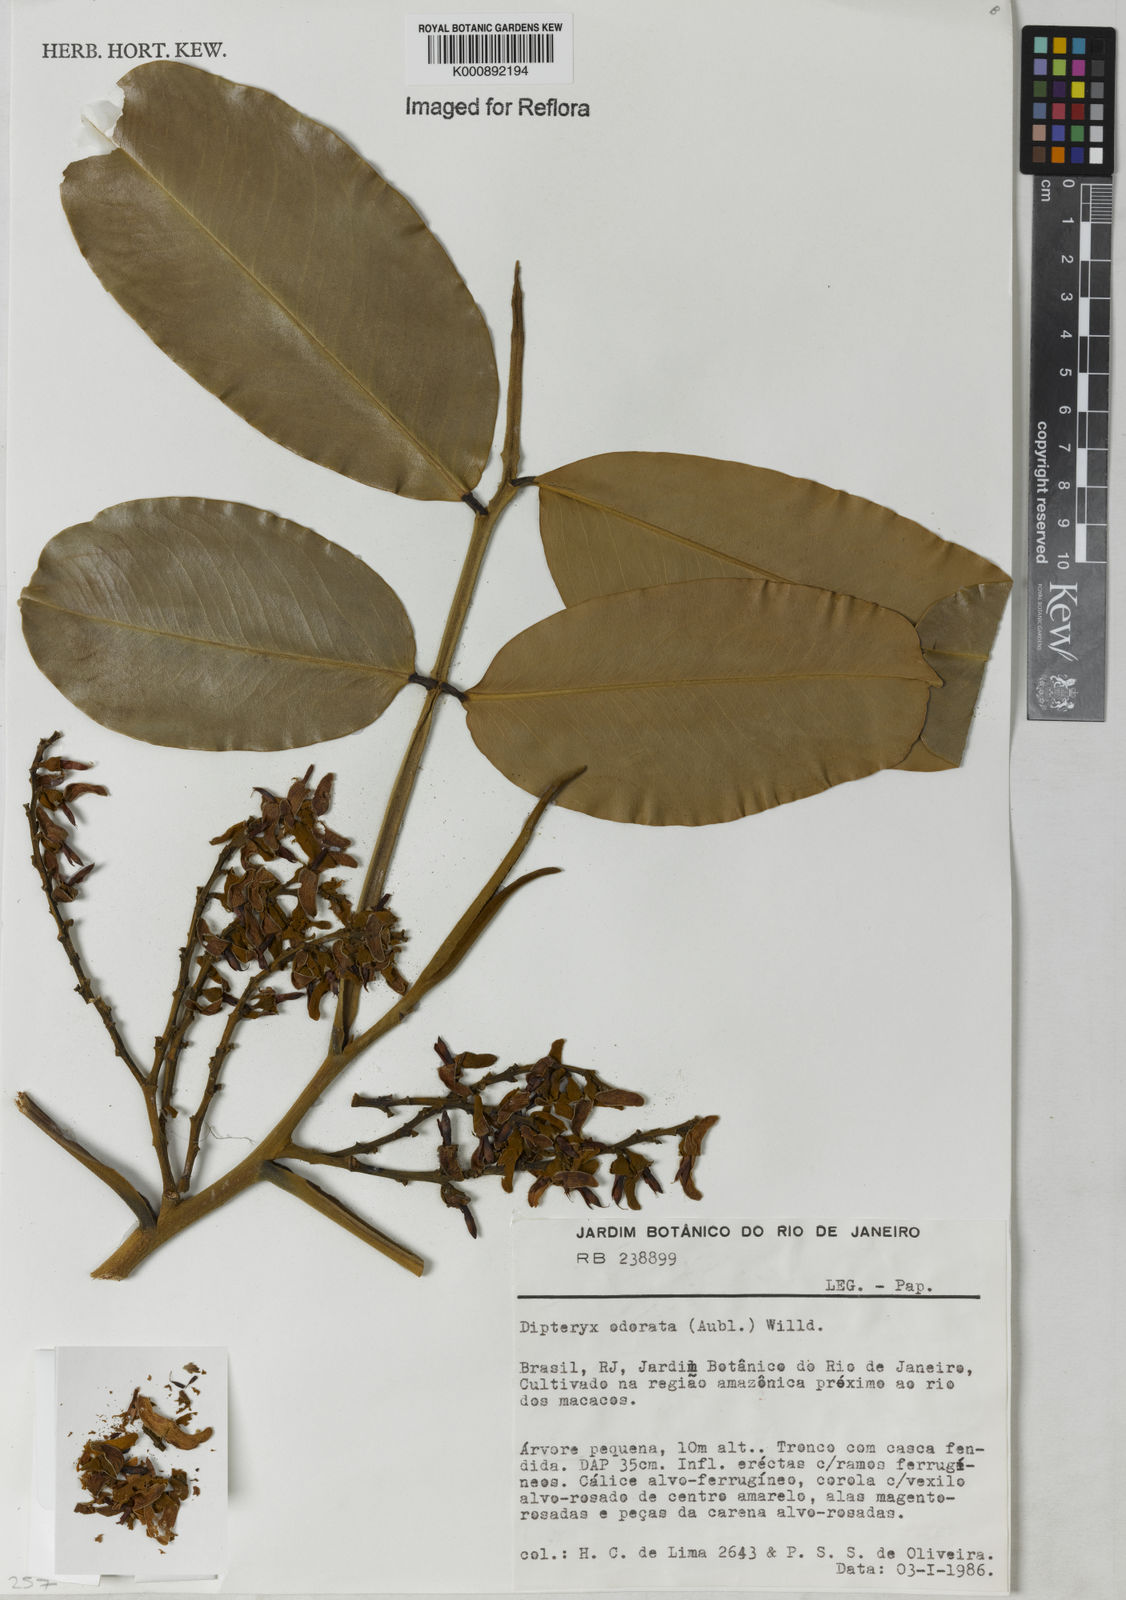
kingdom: Plantae
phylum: Tracheophyta
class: Magnoliopsida
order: Fabales
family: Fabaceae
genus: Dipteryx
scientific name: Dipteryx
